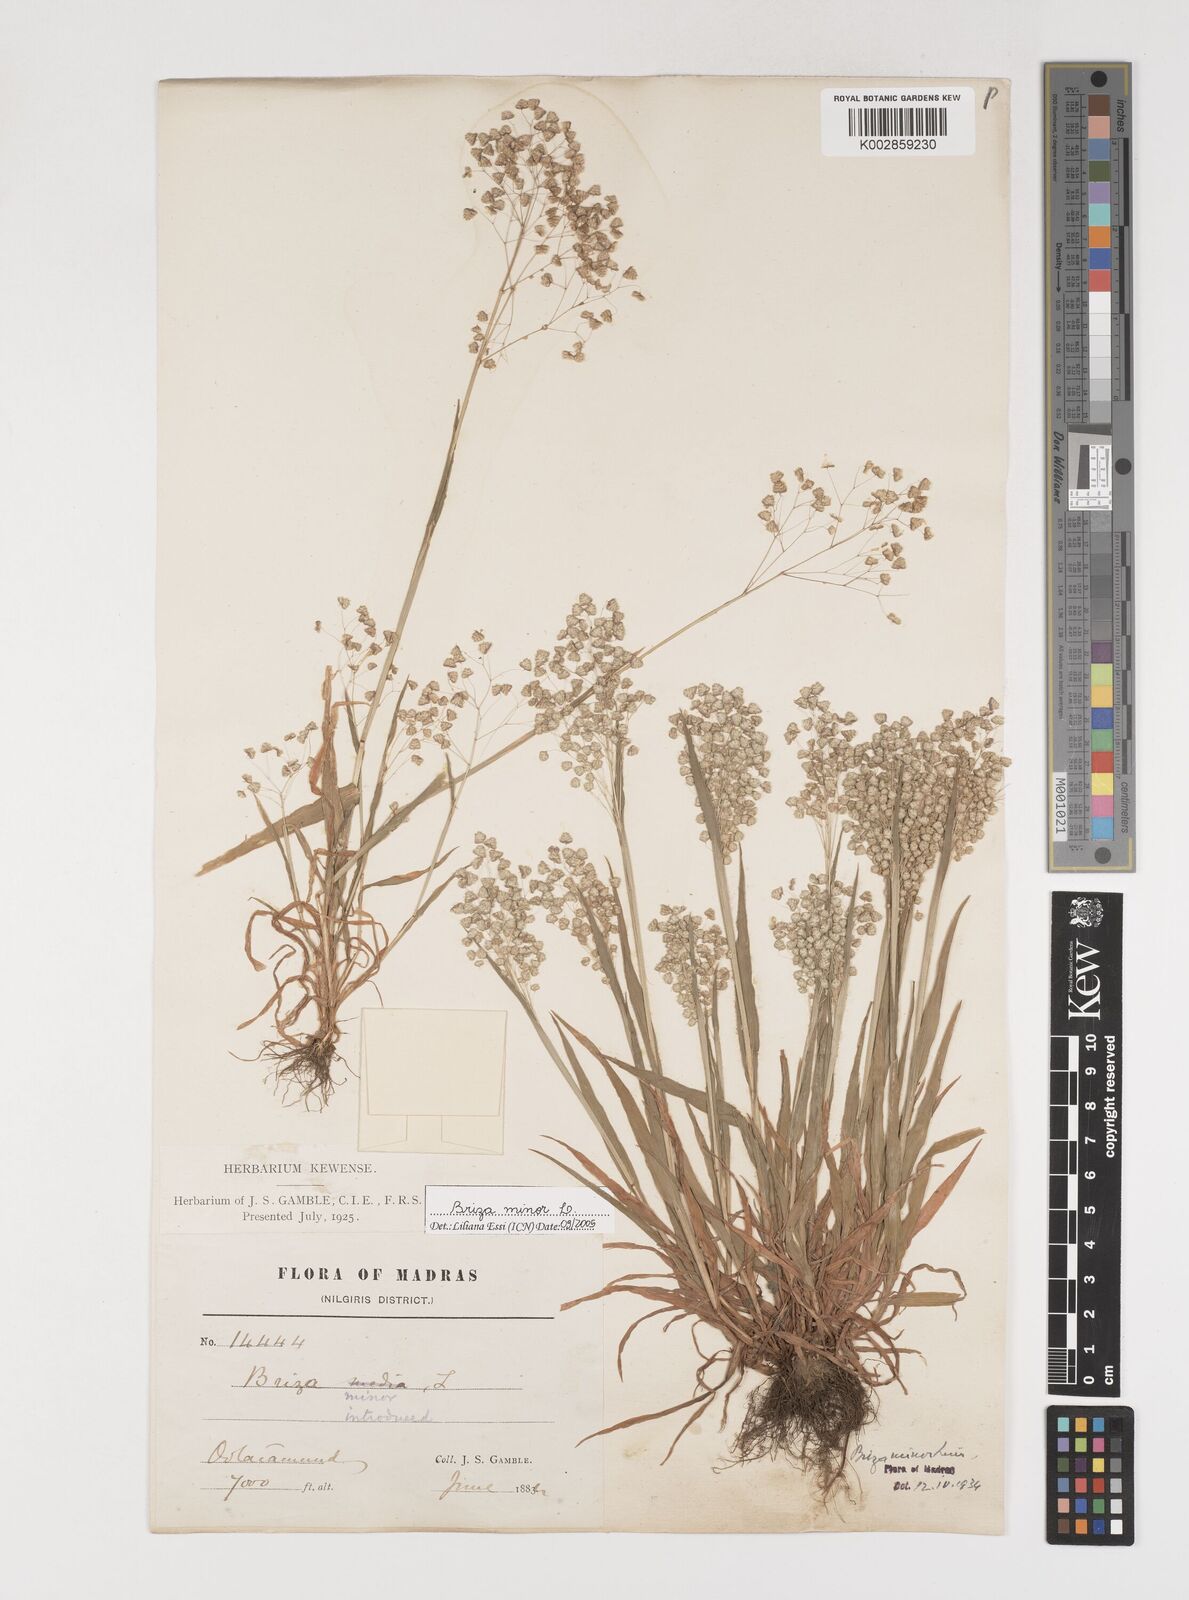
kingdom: Plantae
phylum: Tracheophyta
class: Liliopsida
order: Poales
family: Poaceae
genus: Briza
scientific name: Briza minor
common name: Lesser quaking-grass
